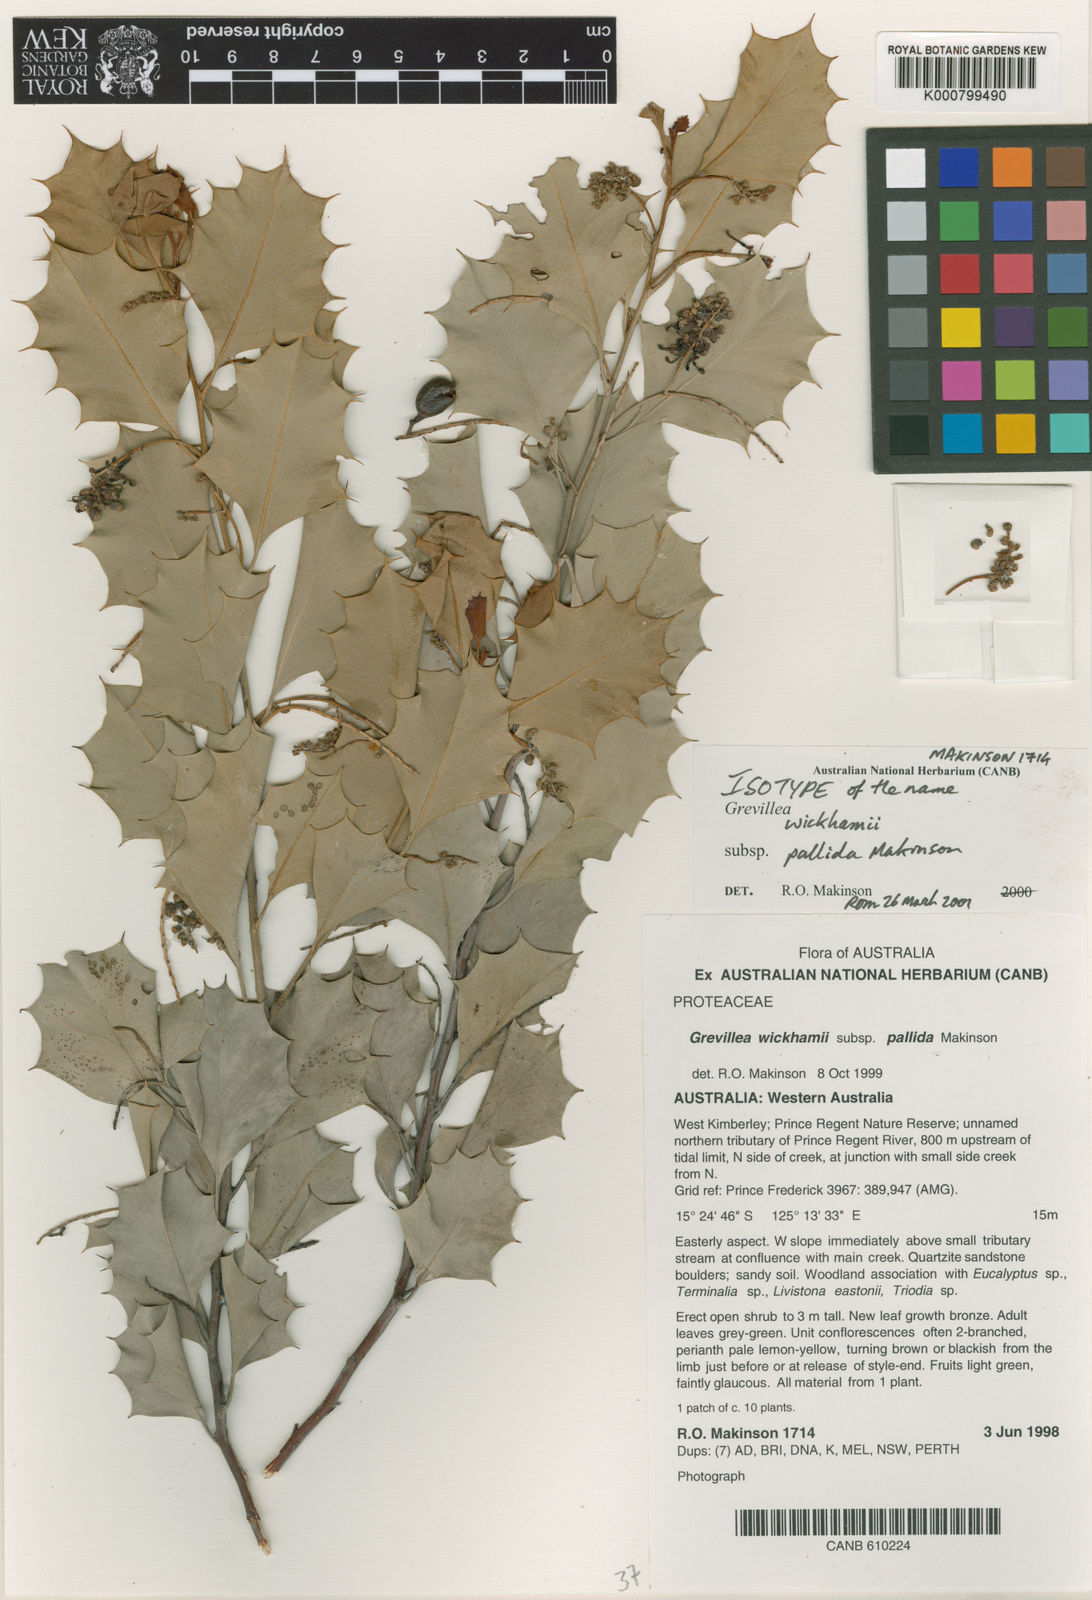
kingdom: Plantae
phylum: Tracheophyta
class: Magnoliopsida
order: Proteales
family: Proteaceae
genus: Grevillea
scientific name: Grevillea wickhamii
